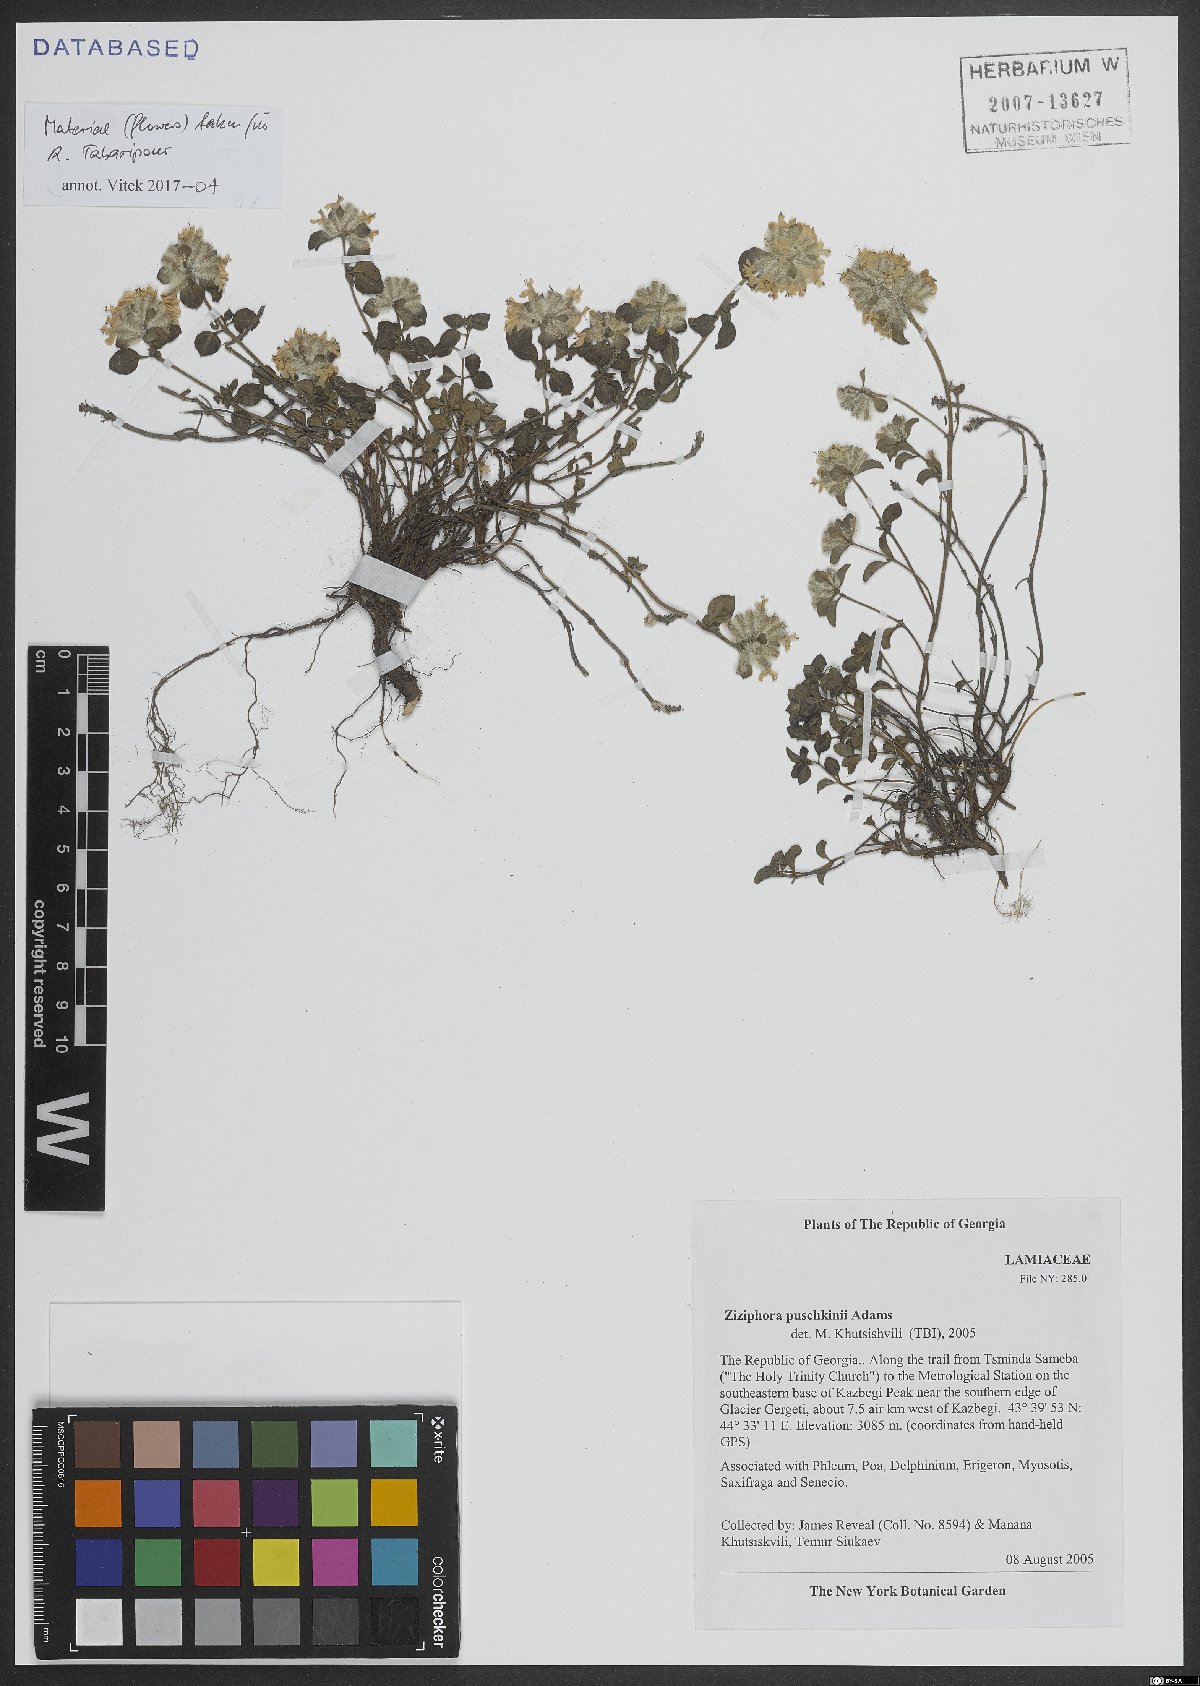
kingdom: Plantae
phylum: Tracheophyta
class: Magnoliopsida
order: Lamiales
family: Lamiaceae
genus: Ziziphora
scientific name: Ziziphora puschkinii
